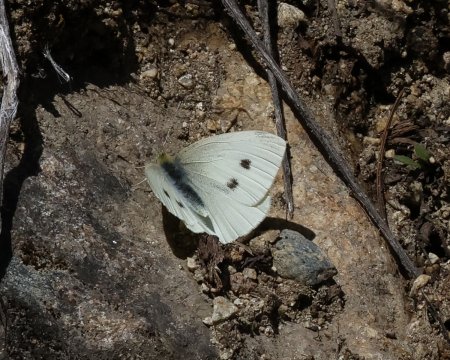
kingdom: Animalia
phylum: Arthropoda
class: Insecta
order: Lepidoptera
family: Pieridae
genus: Pieris
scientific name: Pieris rapae
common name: Cabbage White
